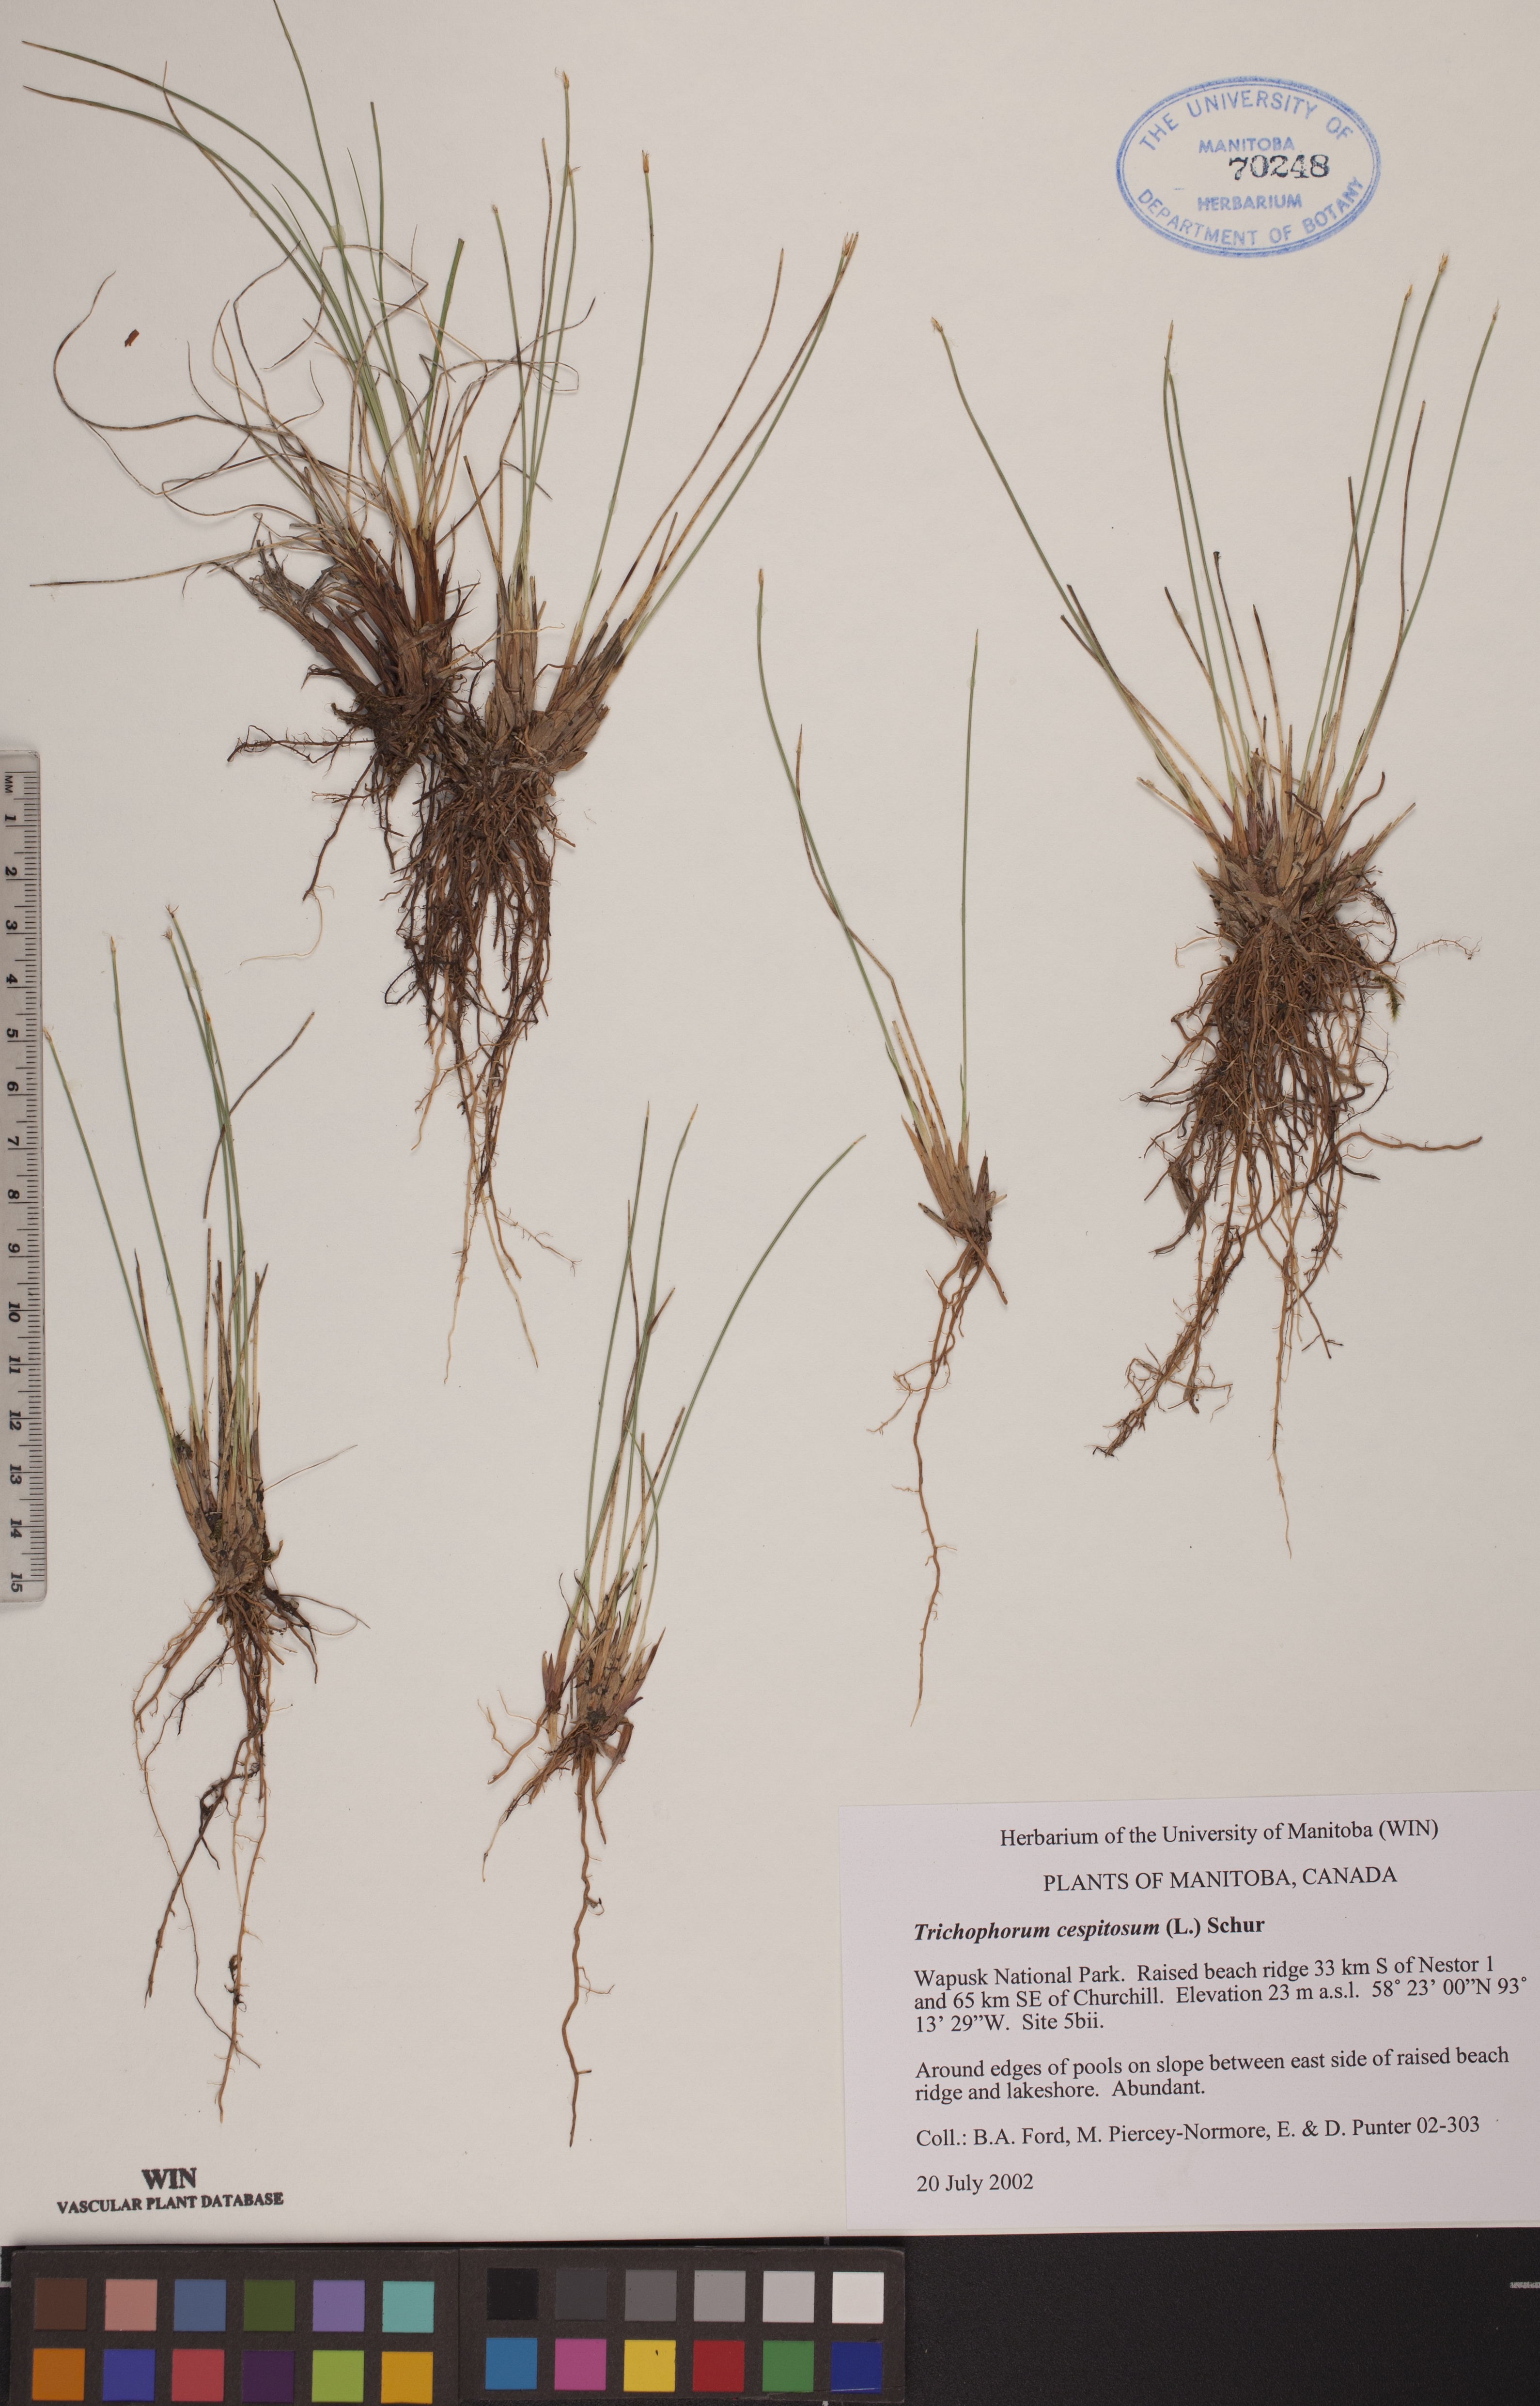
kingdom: Plantae
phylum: Tracheophyta
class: Liliopsida
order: Poales
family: Cyperaceae
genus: Trichophorum
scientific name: Trichophorum cespitosum
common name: Cespitose bulrush
